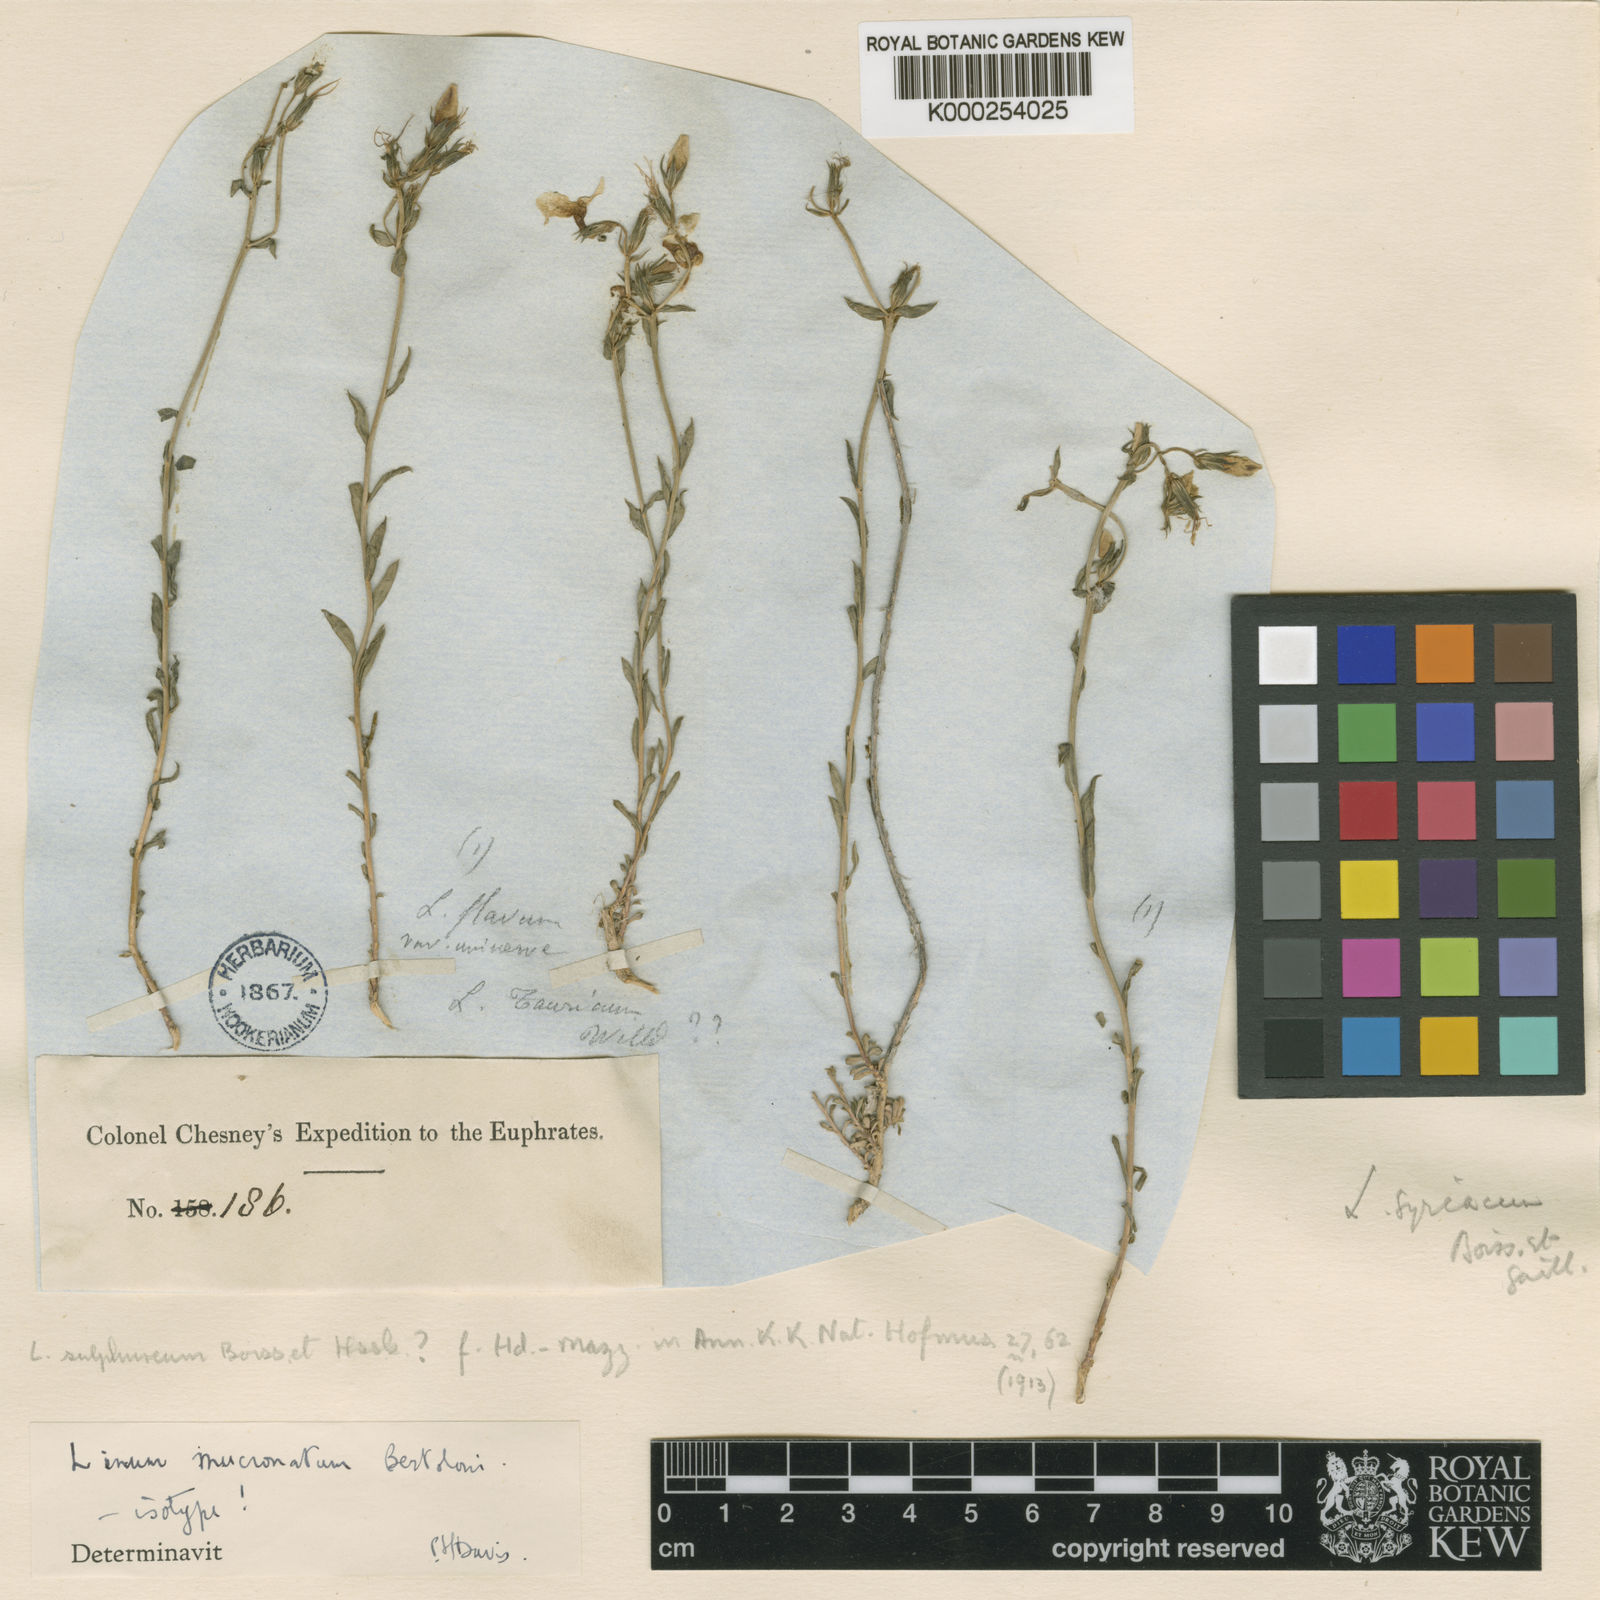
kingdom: Plantae
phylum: Tracheophyta
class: Magnoliopsida
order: Malpighiales
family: Linaceae
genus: Linum
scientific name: Linum mucronatum
